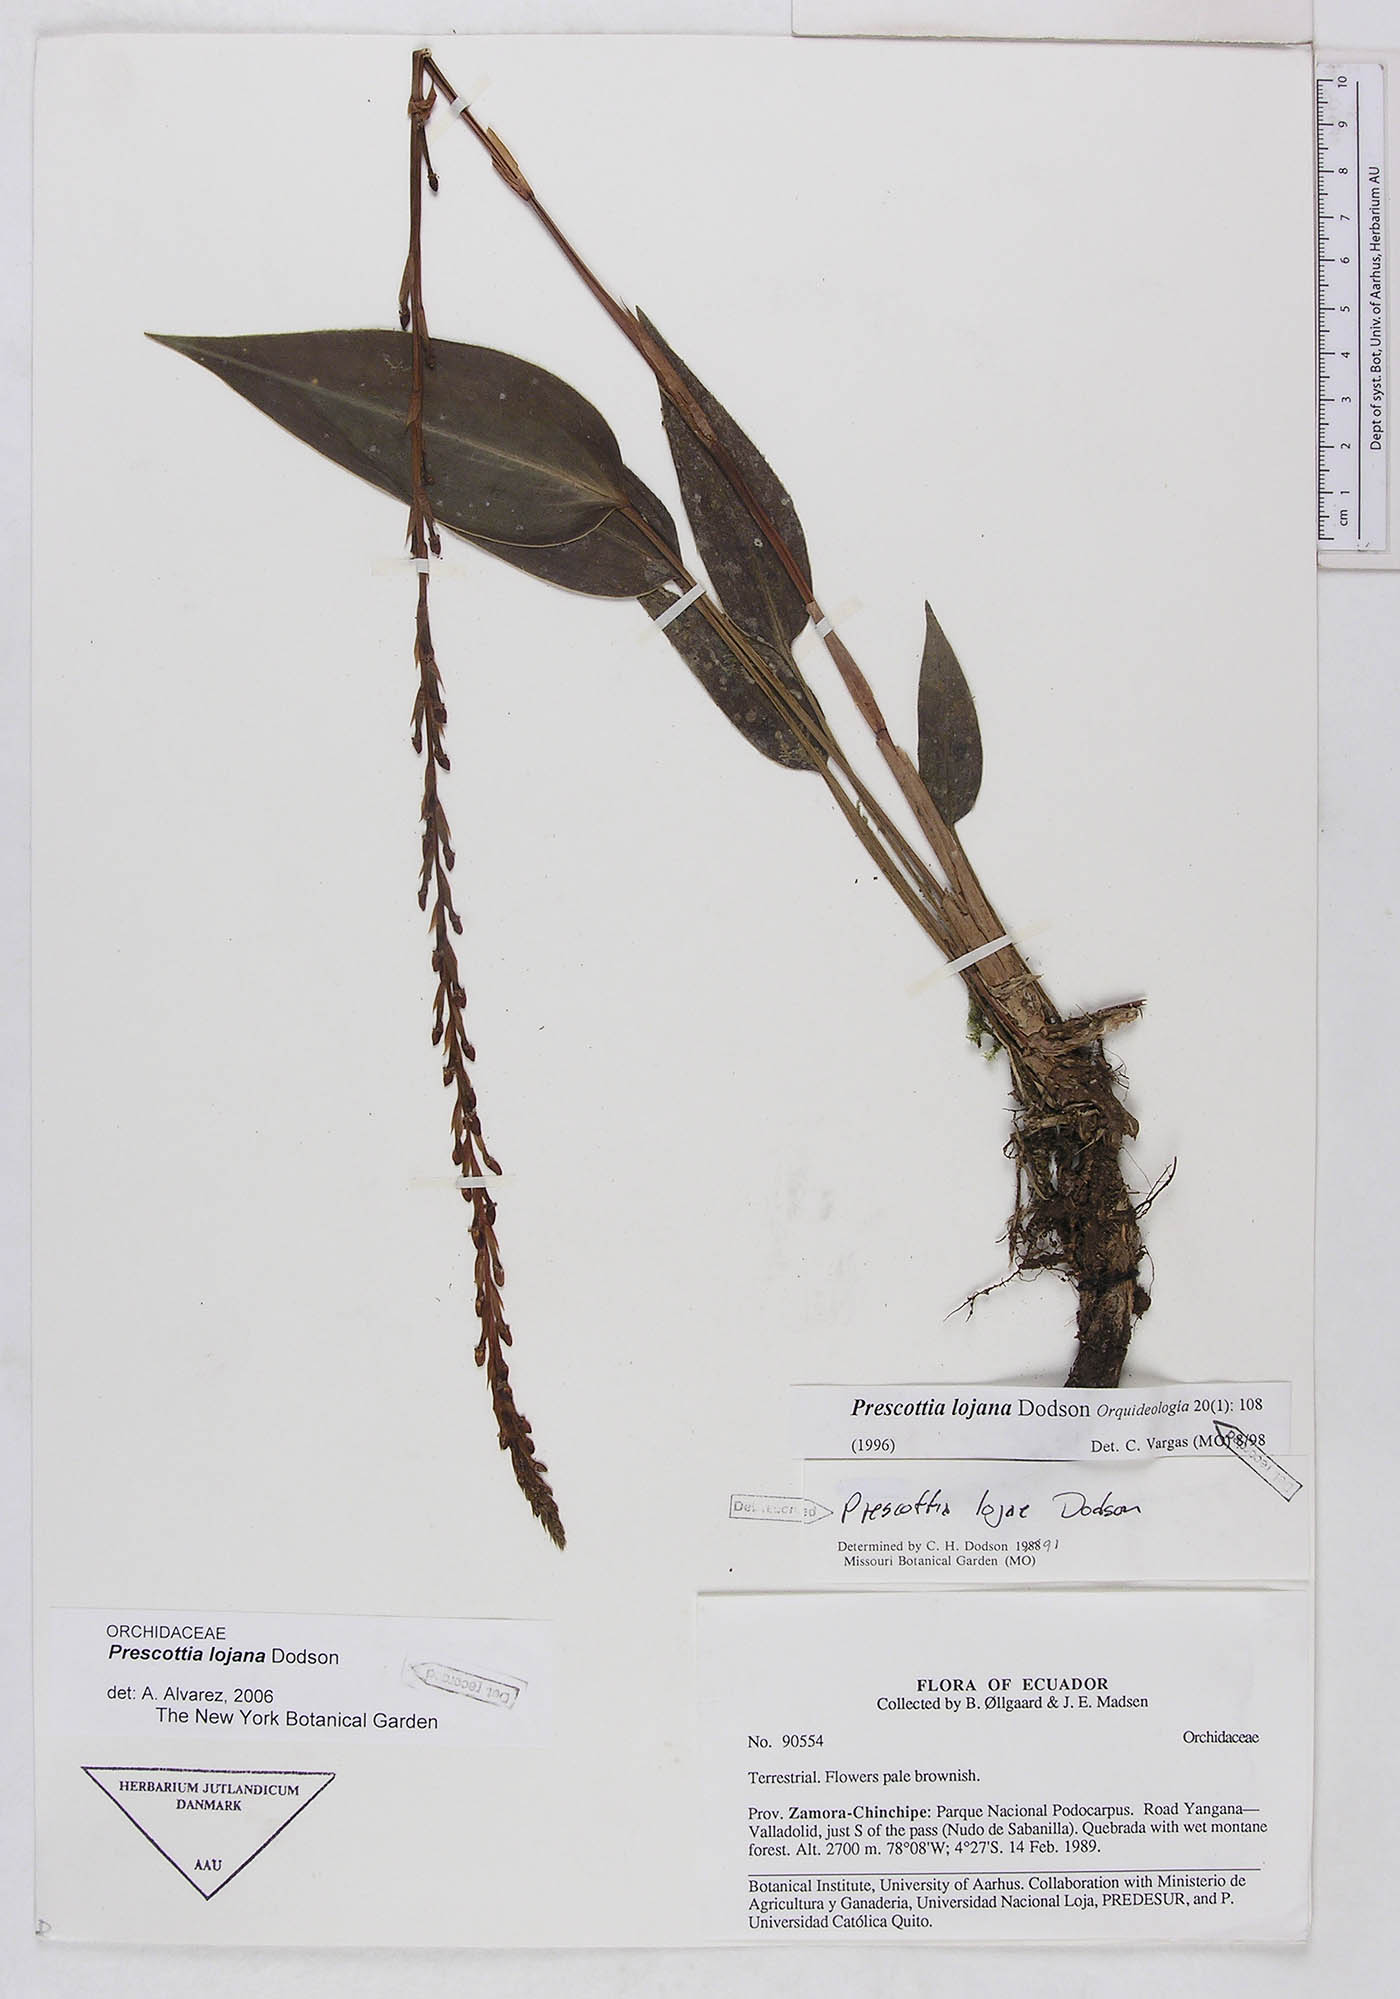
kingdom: Plantae
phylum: Tracheophyta
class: Liliopsida
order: Asparagales
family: Orchidaceae
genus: Prescottia
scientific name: Prescottia lojana
